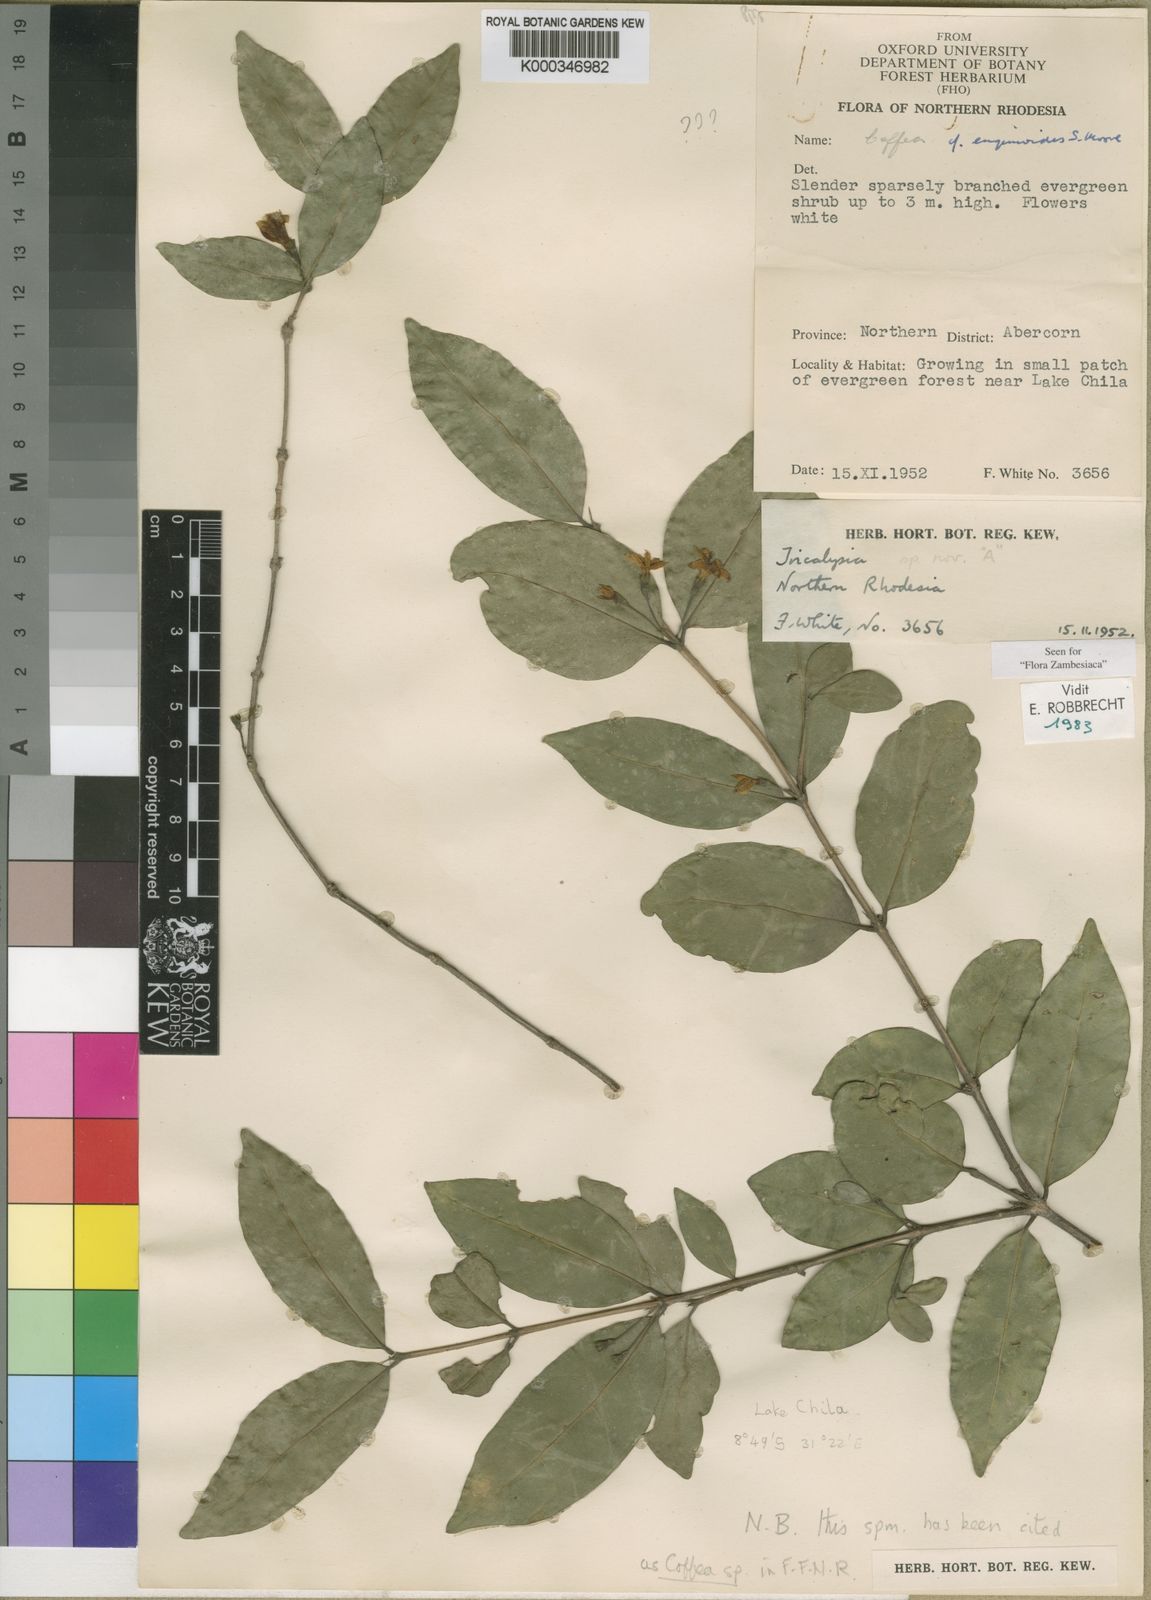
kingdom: Plantae
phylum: Tracheophyta
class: Magnoliopsida
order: Gentianales
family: Rubiaceae
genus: Tricalysia
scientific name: Tricalysia zambesiaca
